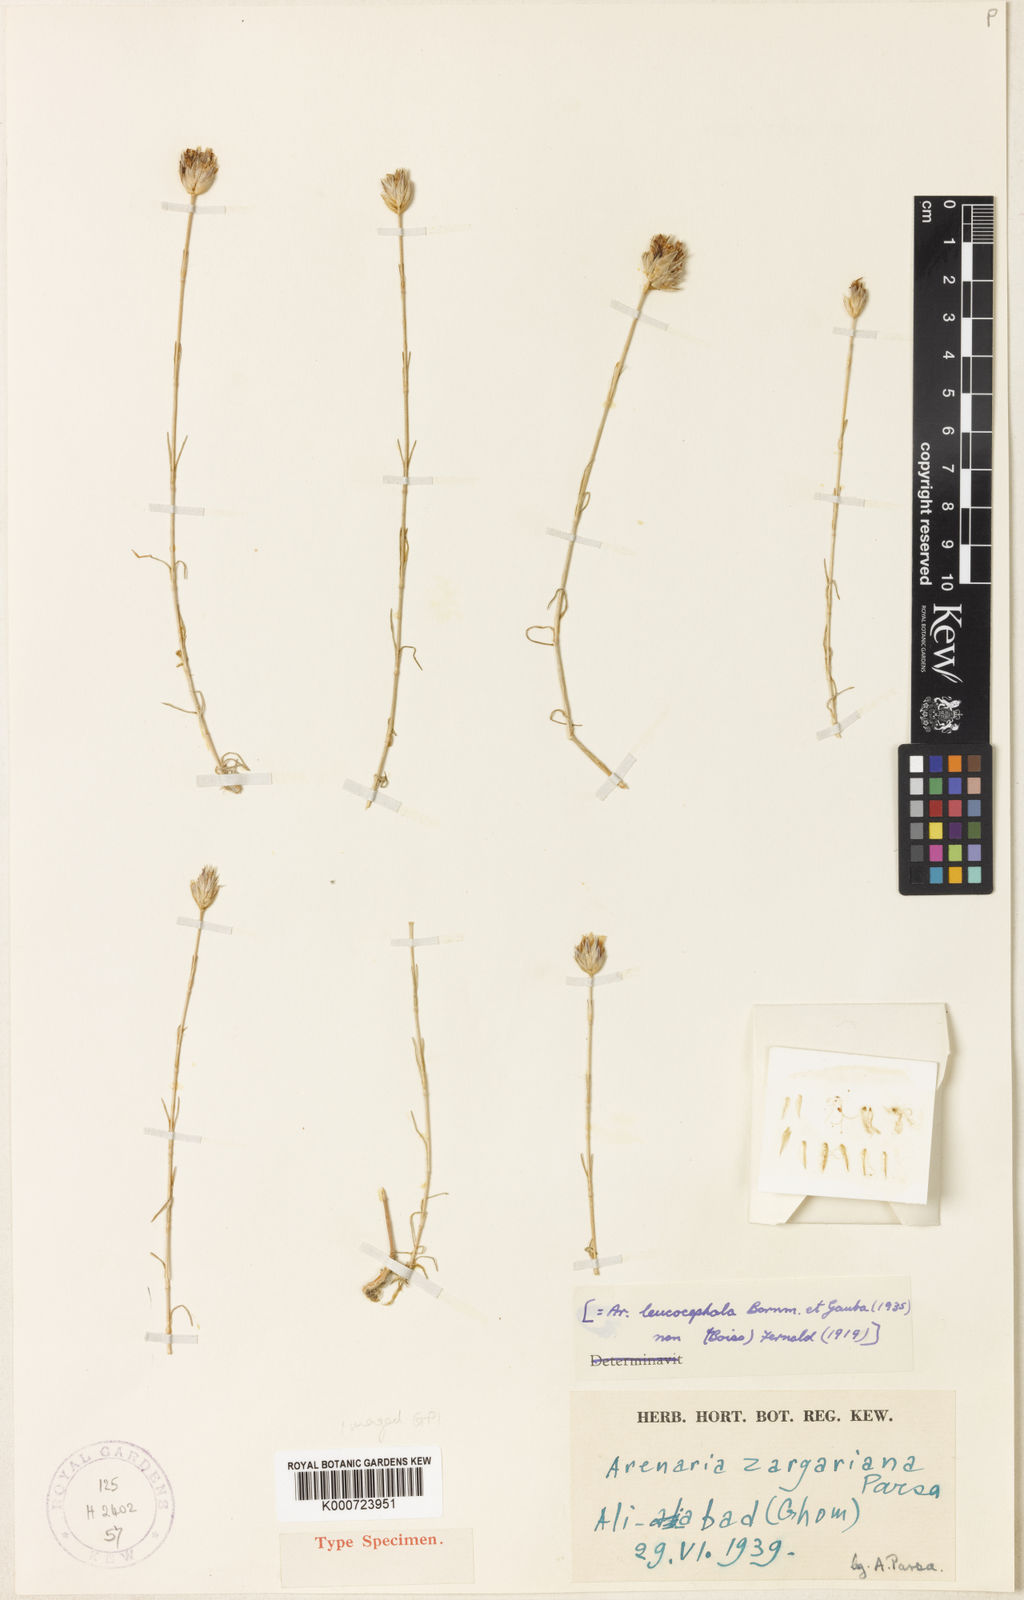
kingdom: Plantae
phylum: Tracheophyta
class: Magnoliopsida
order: Caryophyllales
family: Caryophyllaceae
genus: Eremogone
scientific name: Eremogone zargariana
